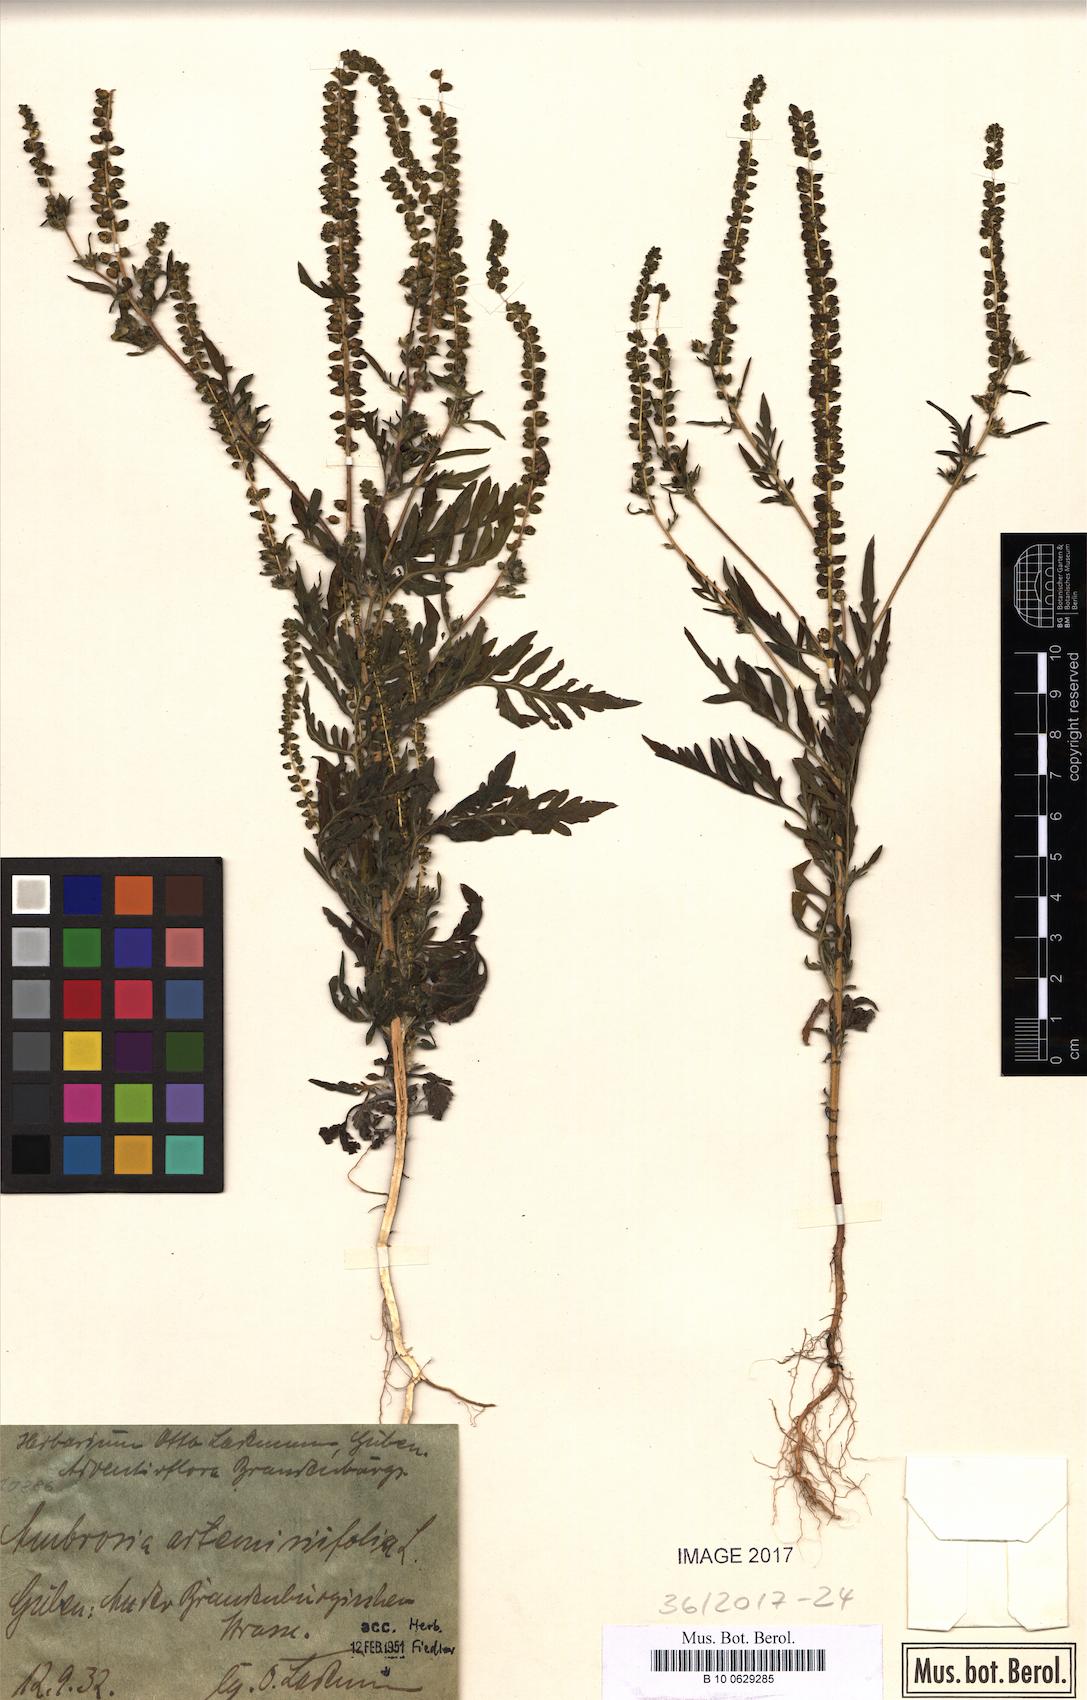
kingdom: Plantae
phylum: Tracheophyta
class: Magnoliopsida
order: Asterales
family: Asteraceae
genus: Ambrosia
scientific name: Ambrosia artemisiifolia
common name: Annual ragweed
